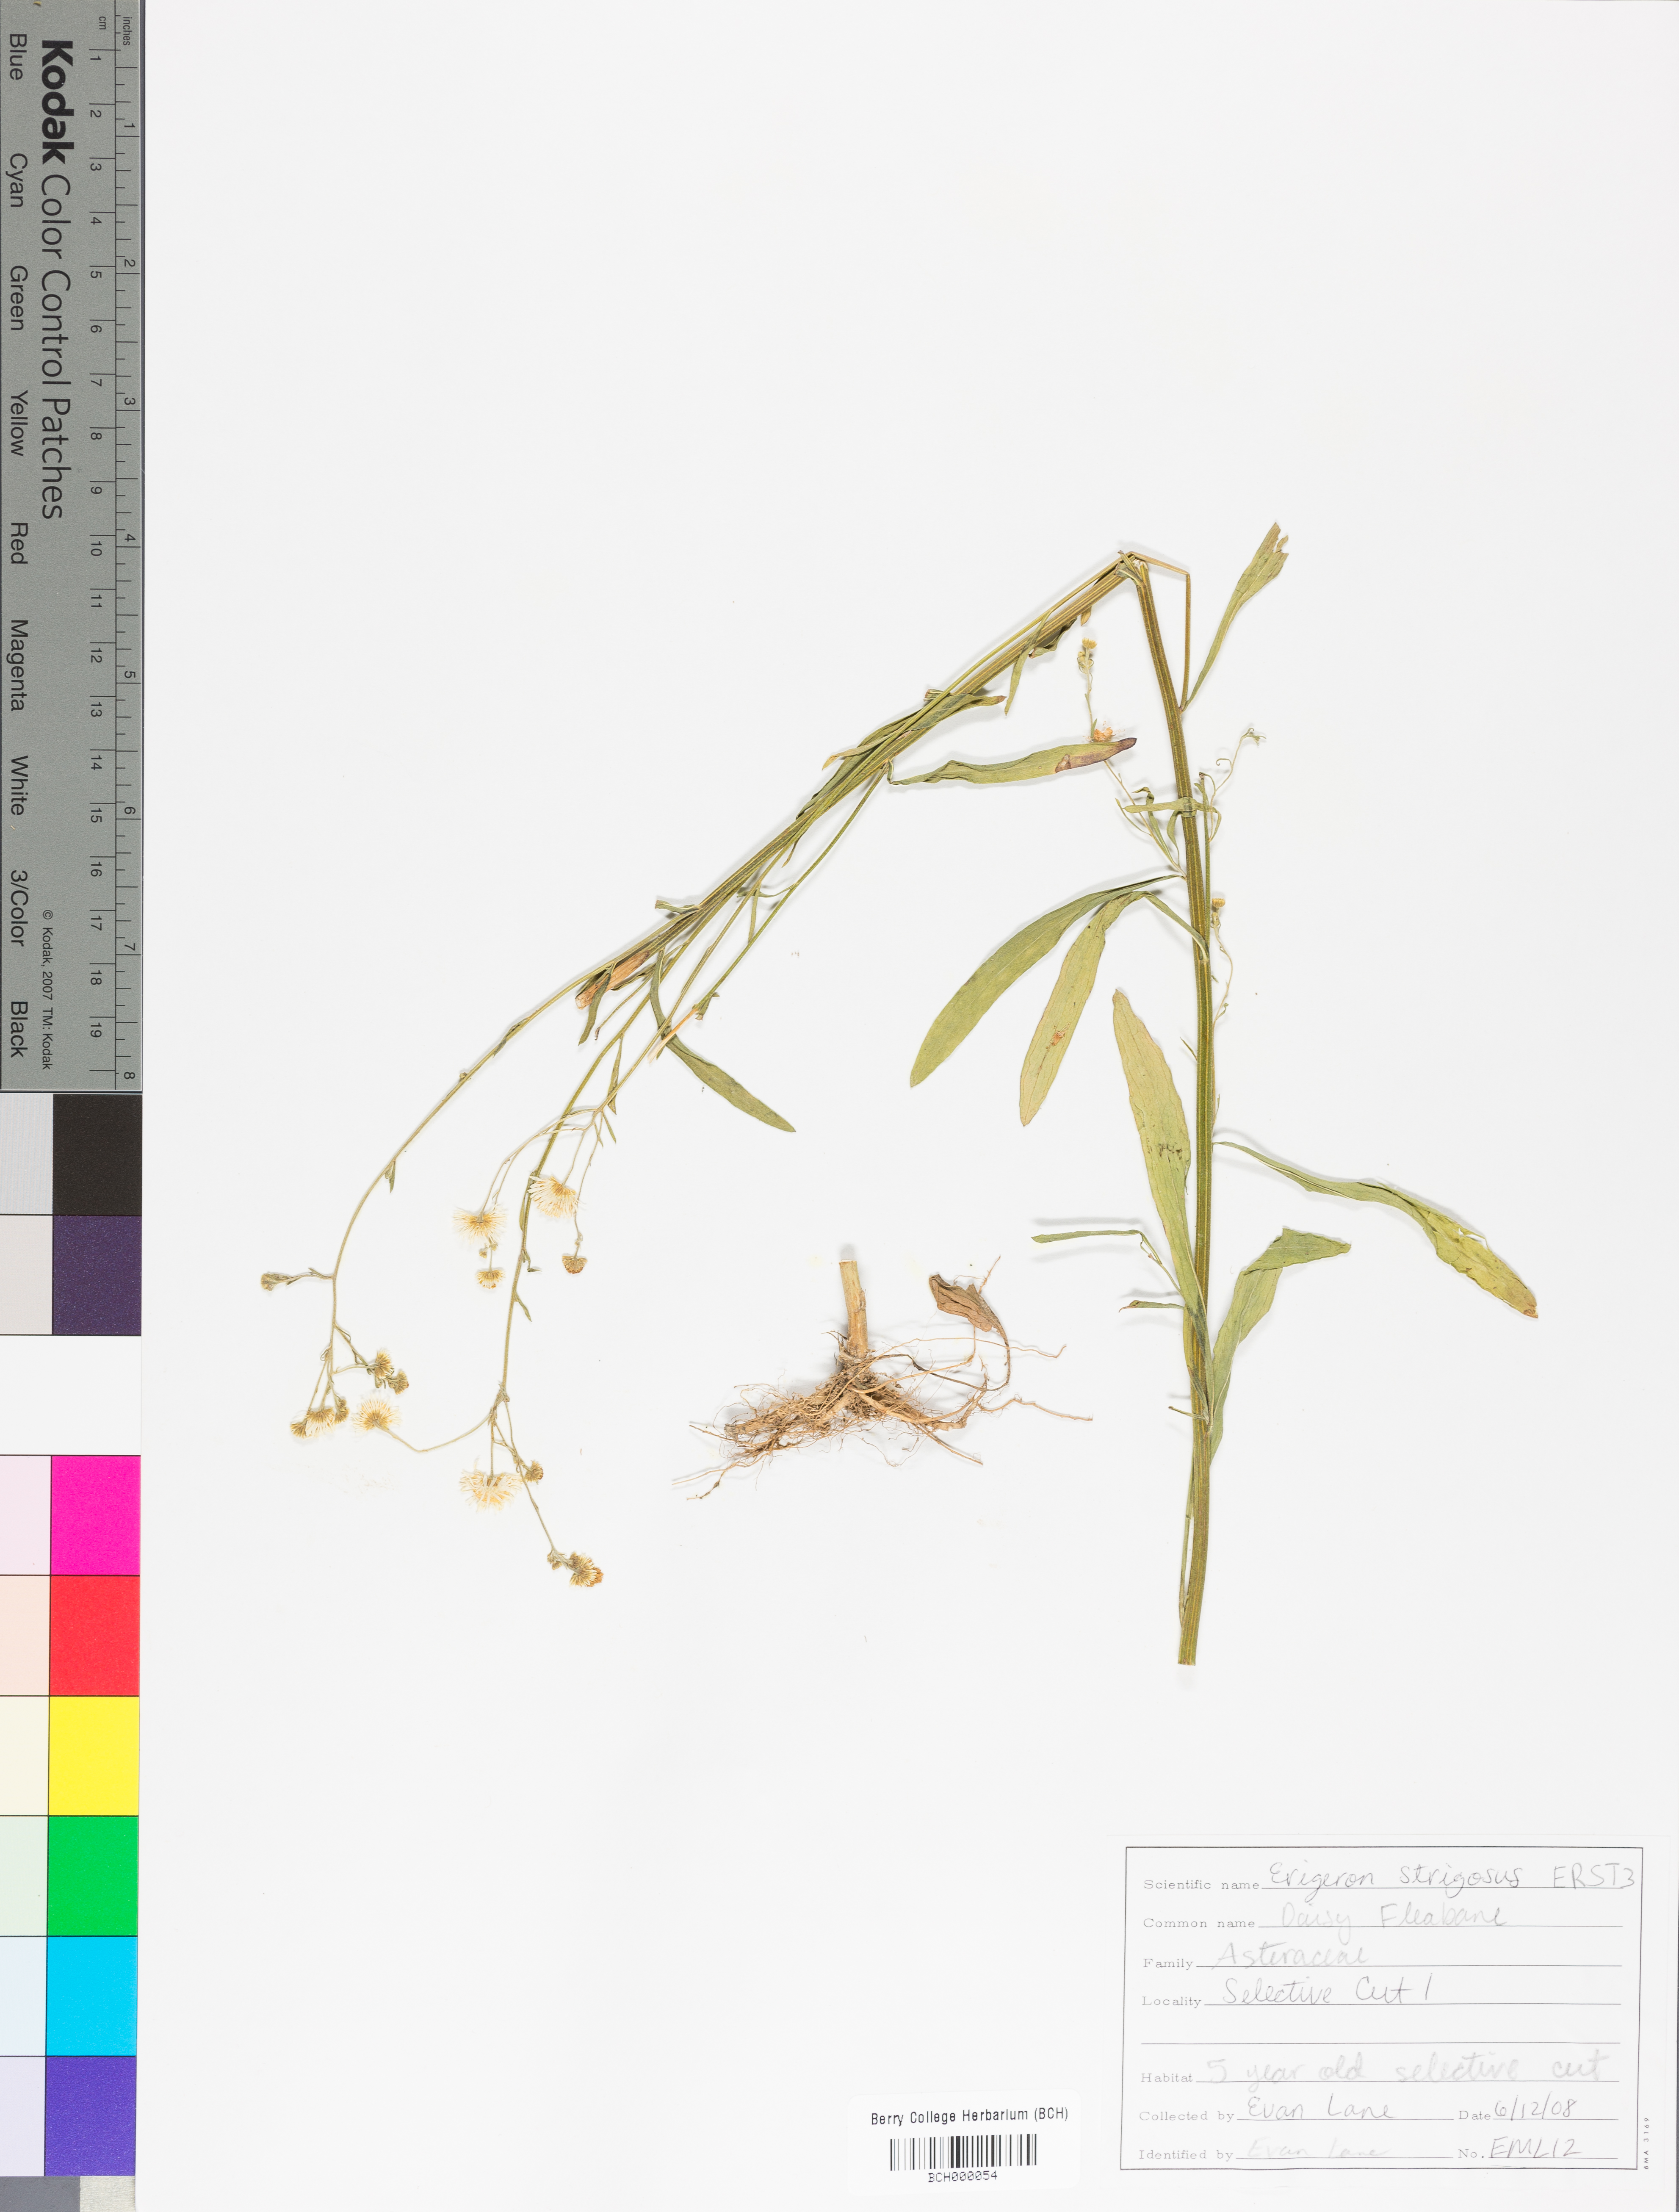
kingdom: Plantae
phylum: Tracheophyta
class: Magnoliopsida
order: Asterales
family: Asteraceae
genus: Erigeron
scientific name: Erigeron strigosus
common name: Common eastern fleabane
